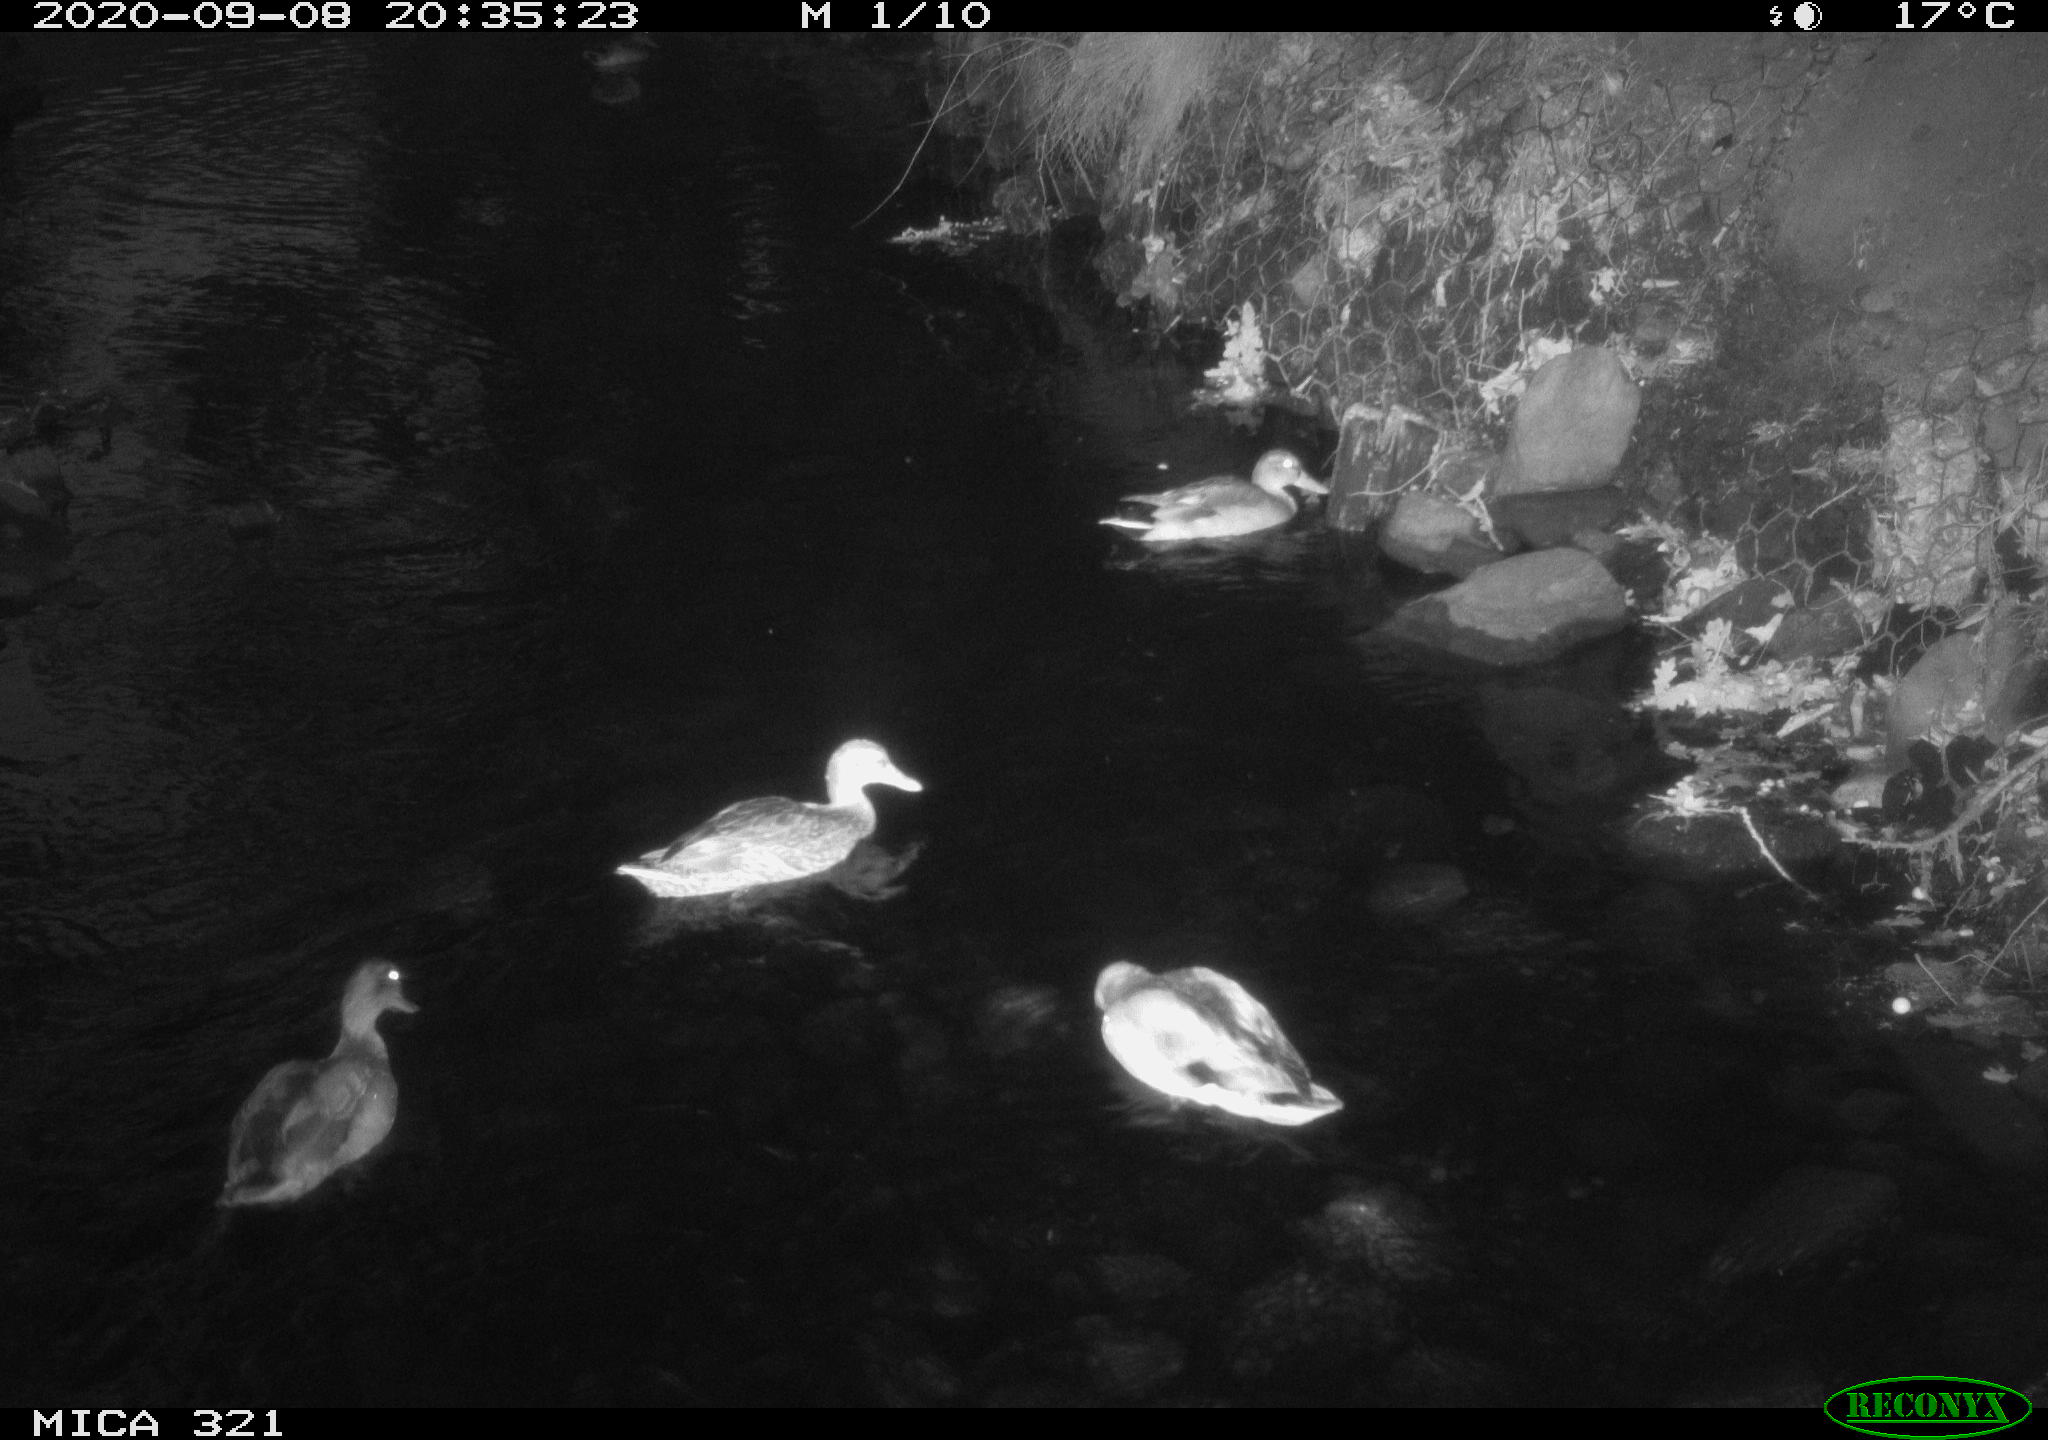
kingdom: Animalia
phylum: Chordata
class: Aves
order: Anseriformes
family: Anatidae
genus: Anas
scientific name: Anas platyrhynchos
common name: Mallard
